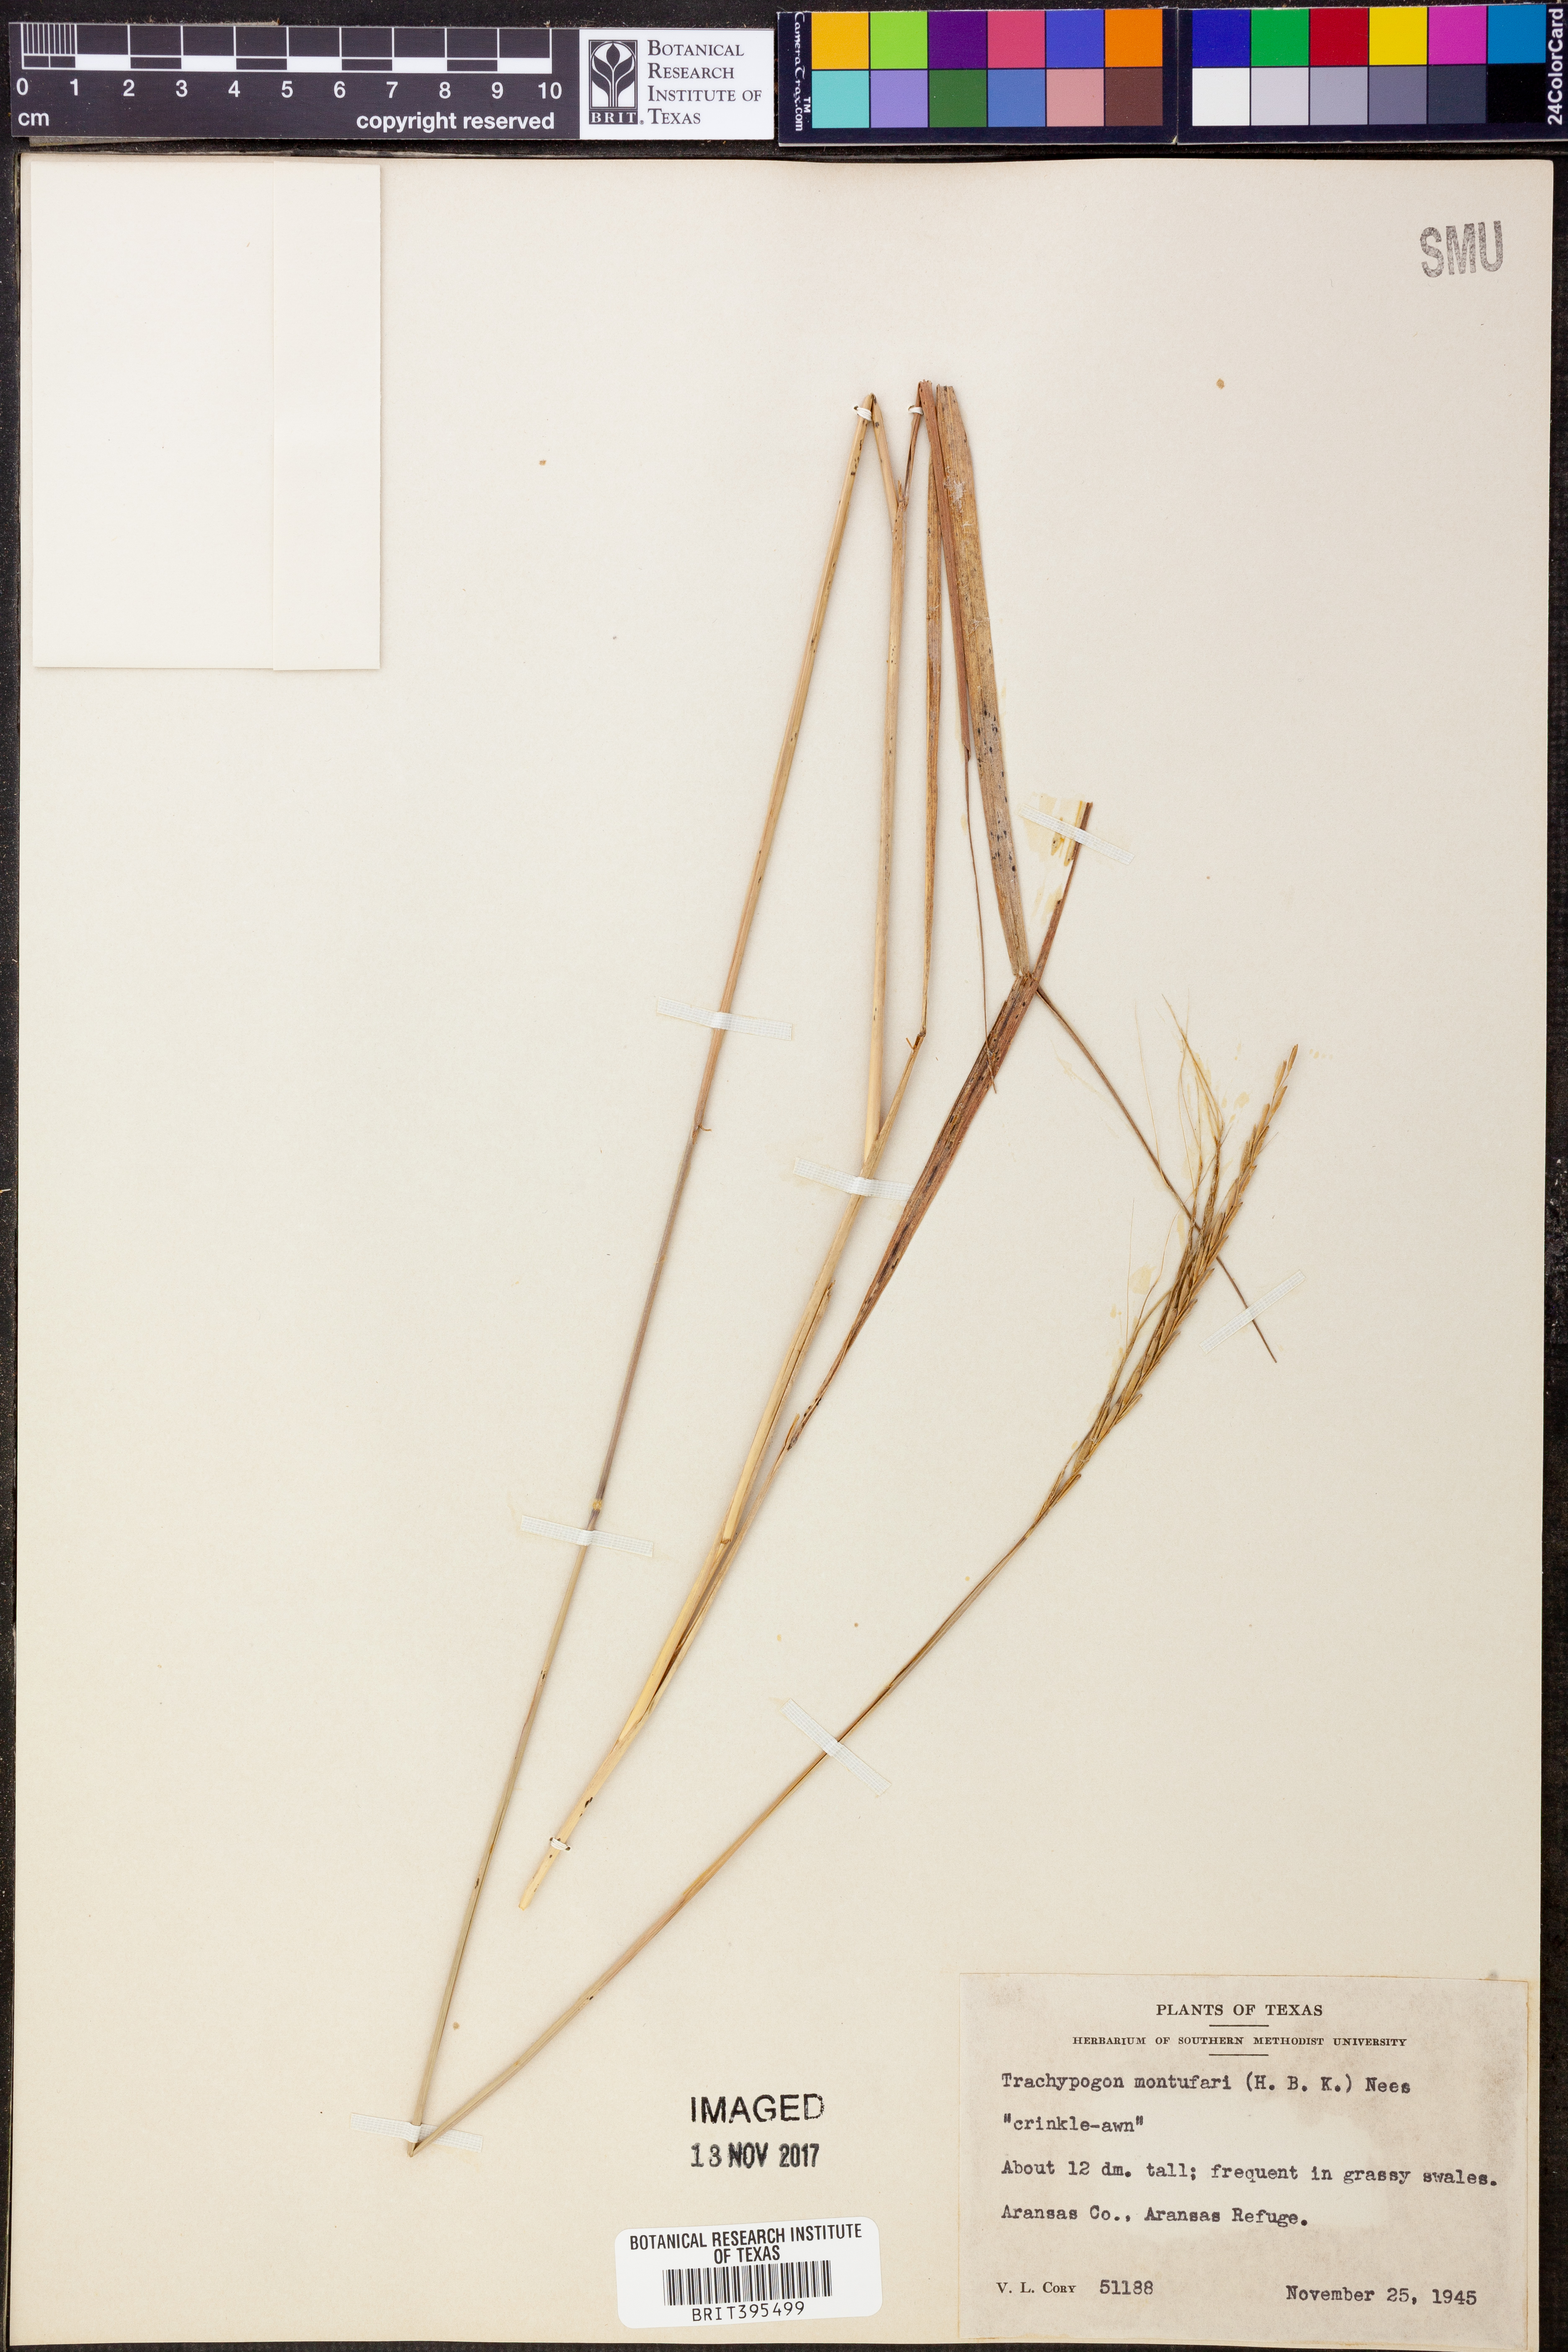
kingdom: Plantae
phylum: Tracheophyta
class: Liliopsida
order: Poales
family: Poaceae
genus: Trachypogon
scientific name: Trachypogon spicatus
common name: Crinkle-awn
